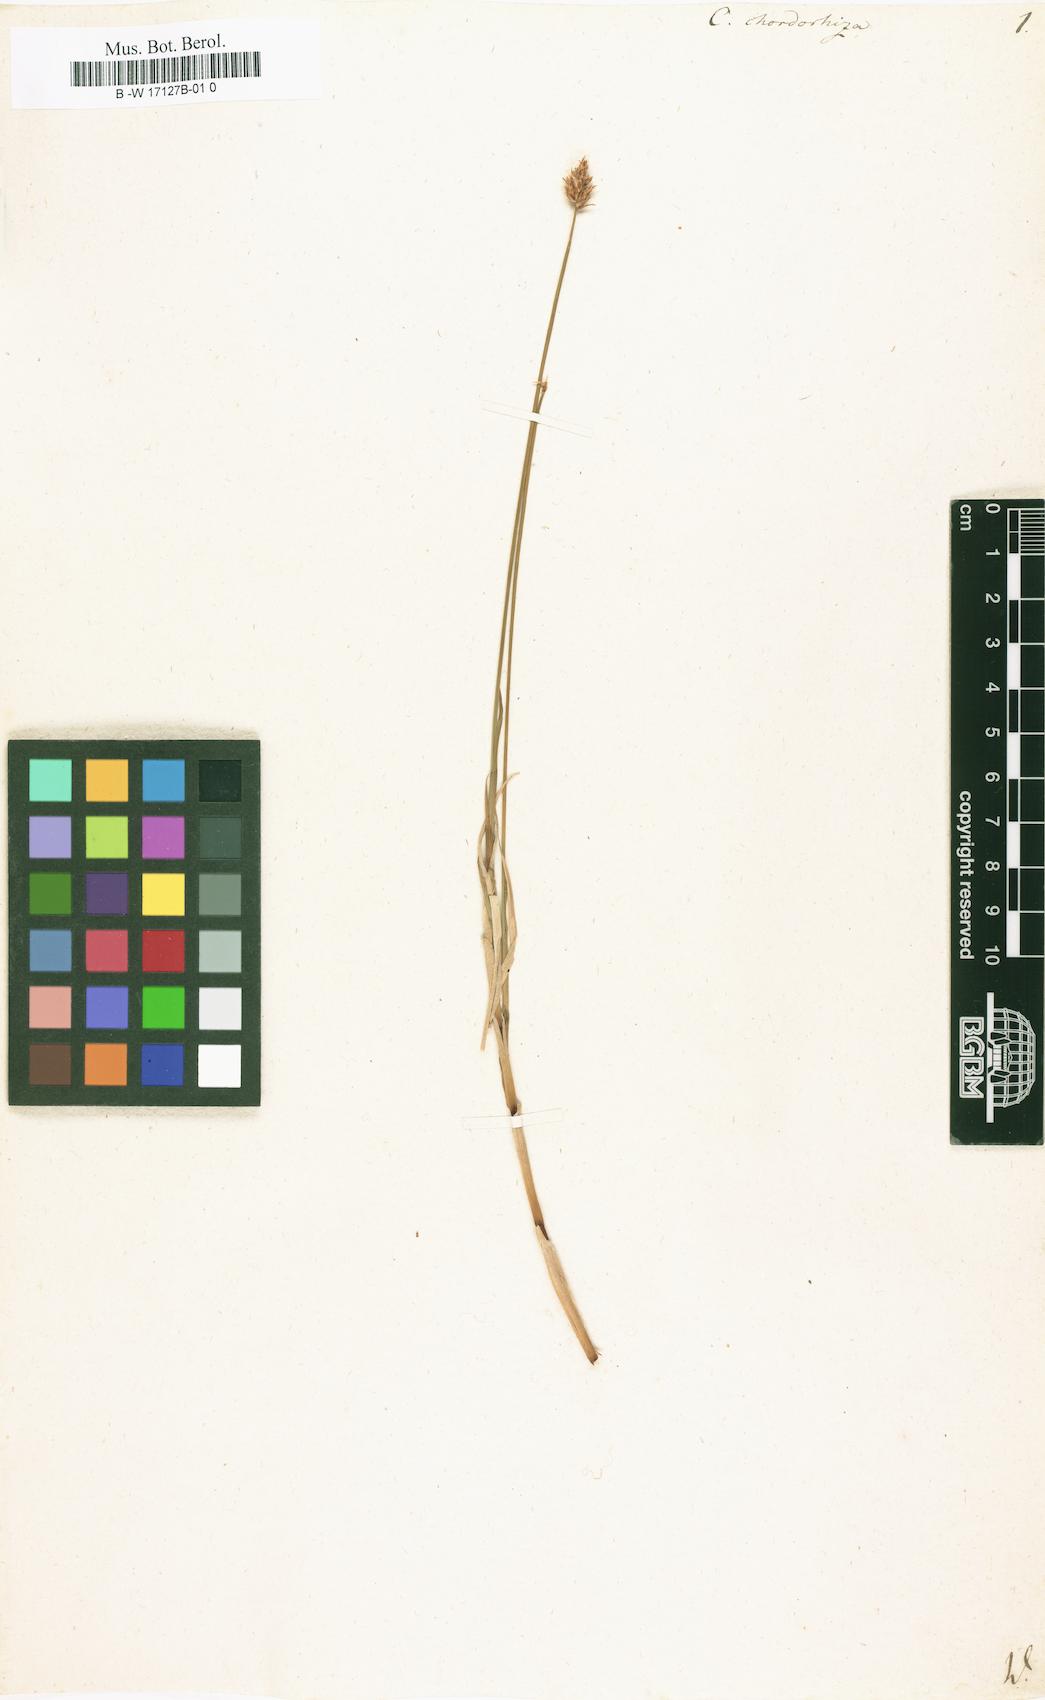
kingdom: Plantae
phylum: Tracheophyta
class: Liliopsida
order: Poales
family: Cyperaceae
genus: Carex
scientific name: Carex chordorrhiza
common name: String sedge
